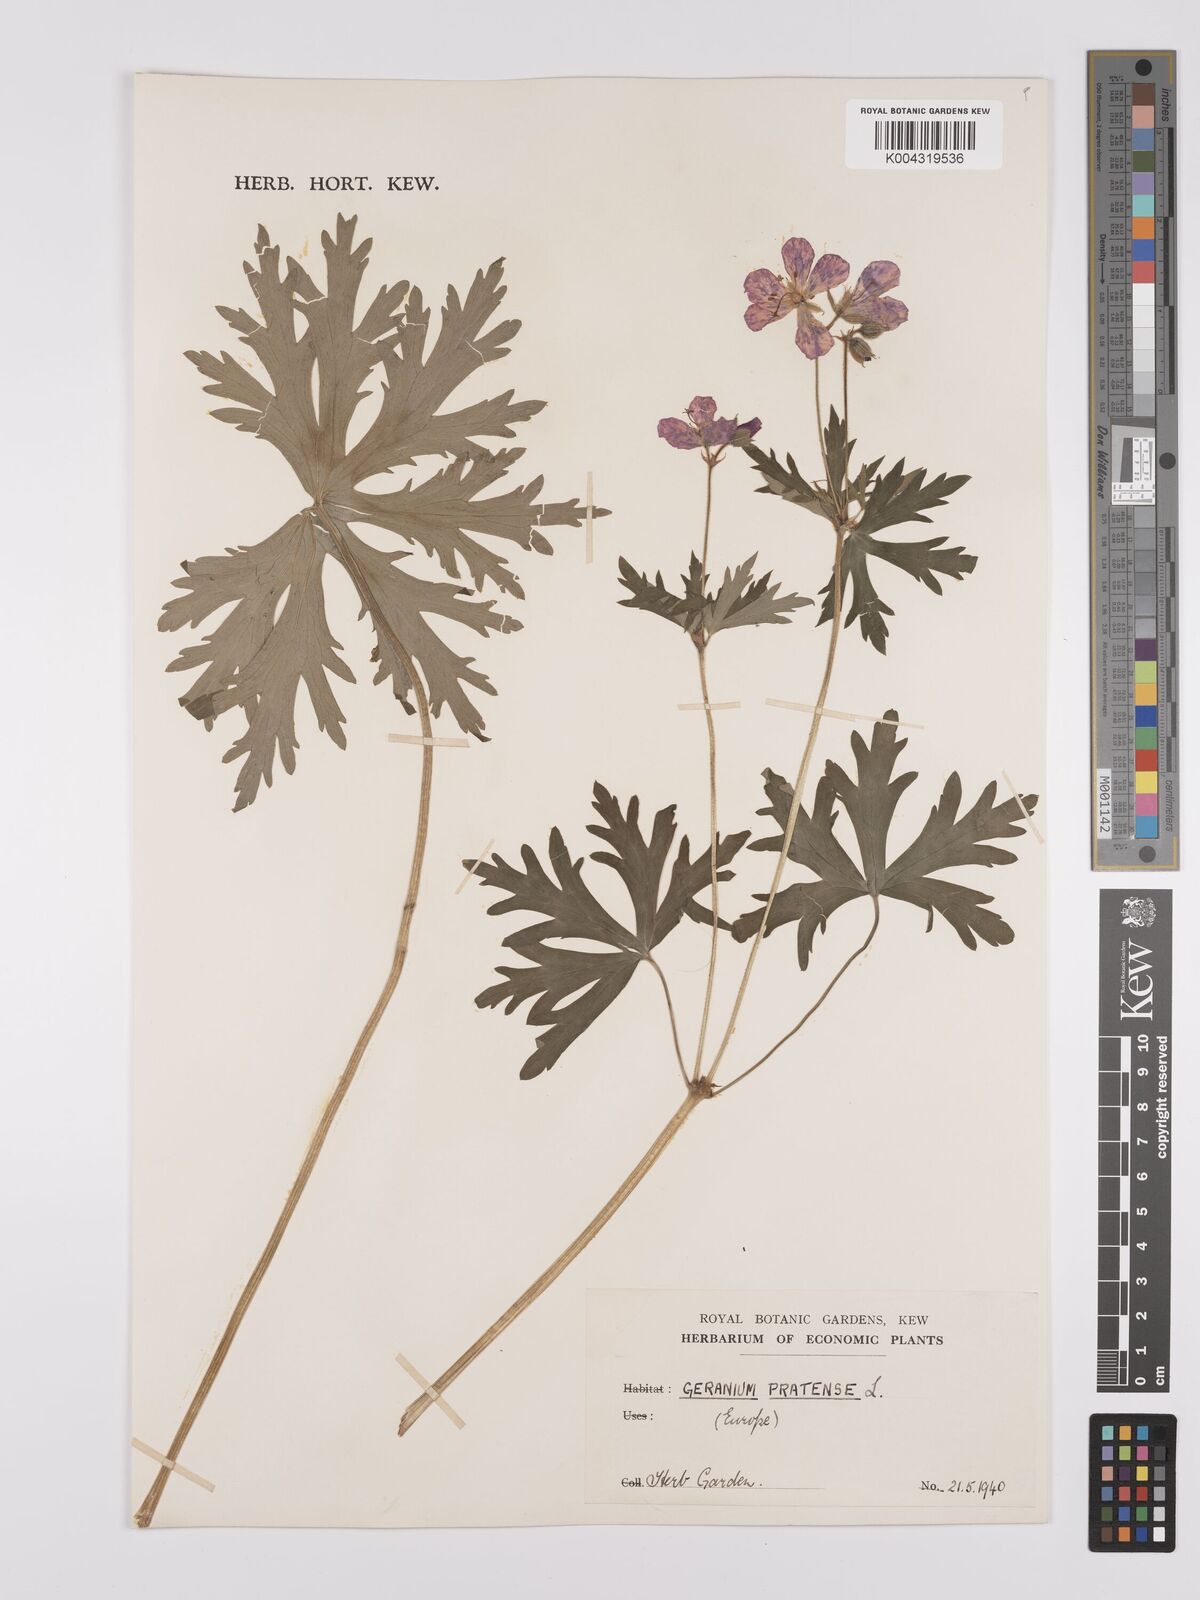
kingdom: Plantae
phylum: Tracheophyta
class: Magnoliopsida
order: Geraniales
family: Geraniaceae
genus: Geranium
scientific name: Geranium pratense
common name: Meadow crane's-bill
